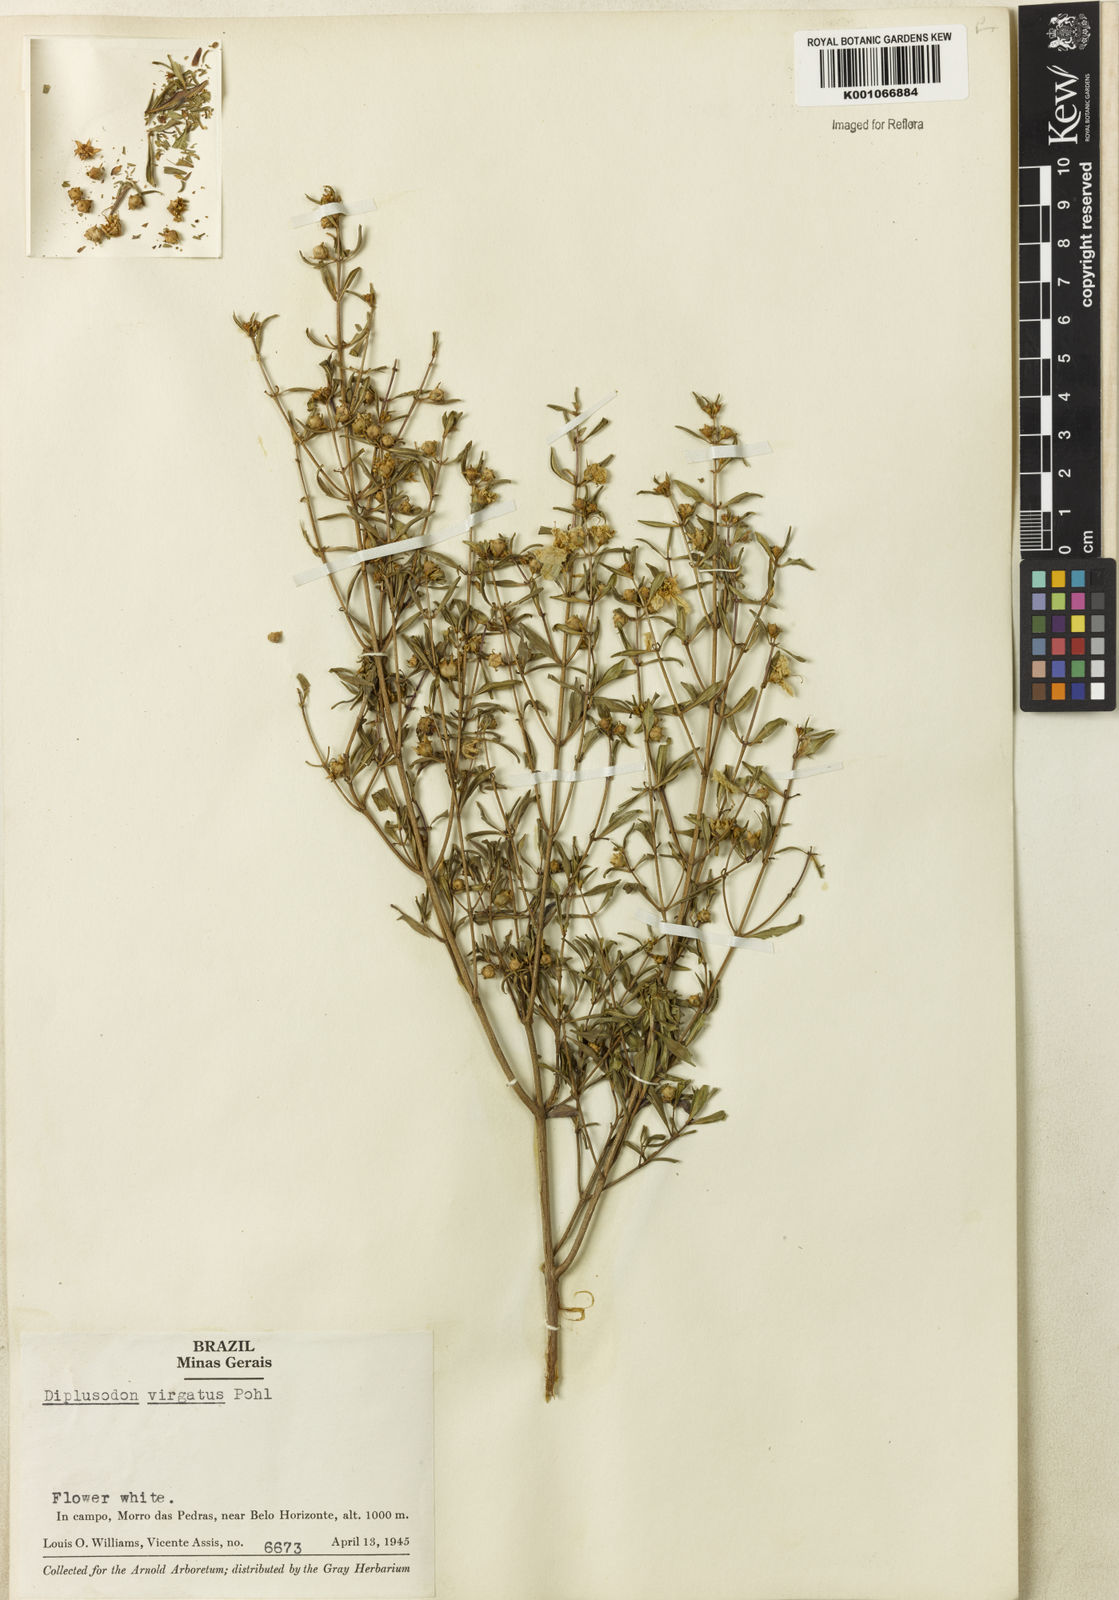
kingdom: Plantae
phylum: Tracheophyta
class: Magnoliopsida
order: Myrtales
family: Lythraceae
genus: Diplusodon
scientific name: Diplusodon virgatus
